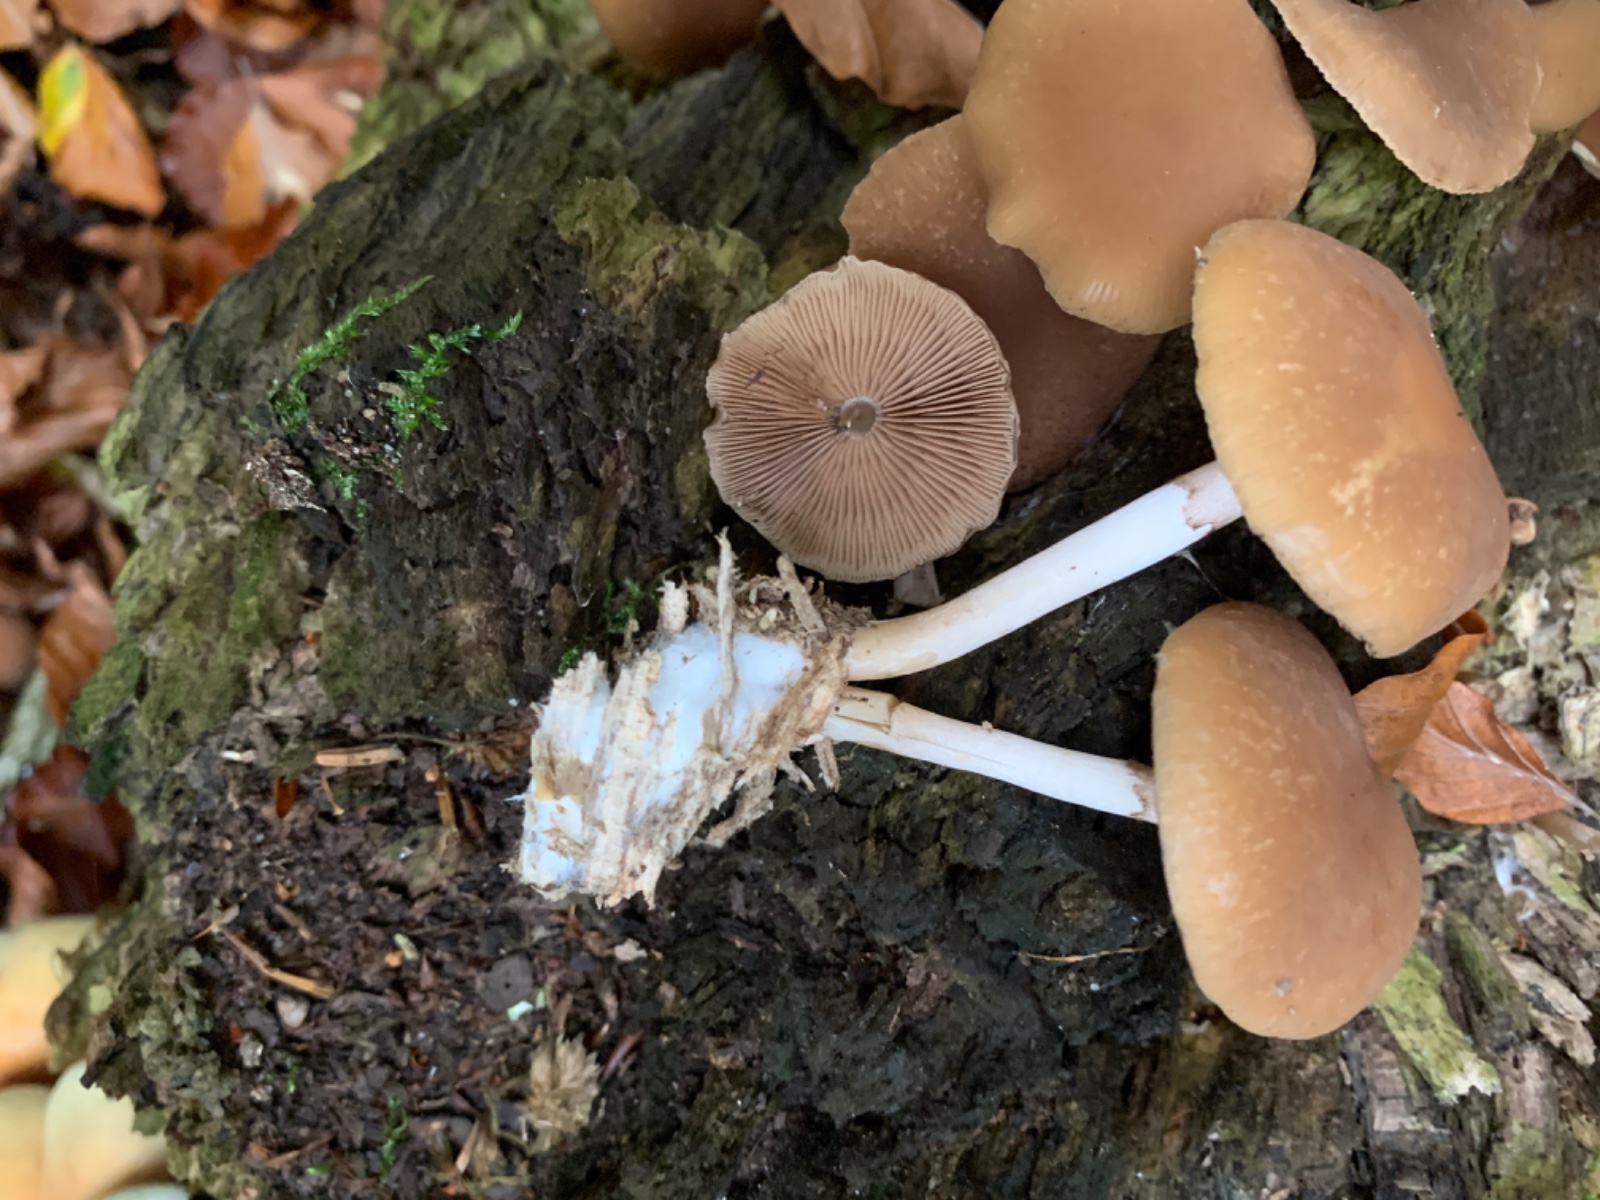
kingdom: Fungi
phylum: Basidiomycota
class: Agaricomycetes
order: Agaricales
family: Psathyrellaceae
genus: Psathyrella
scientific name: Psathyrella piluliformis
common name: lysstokket mørkhat
